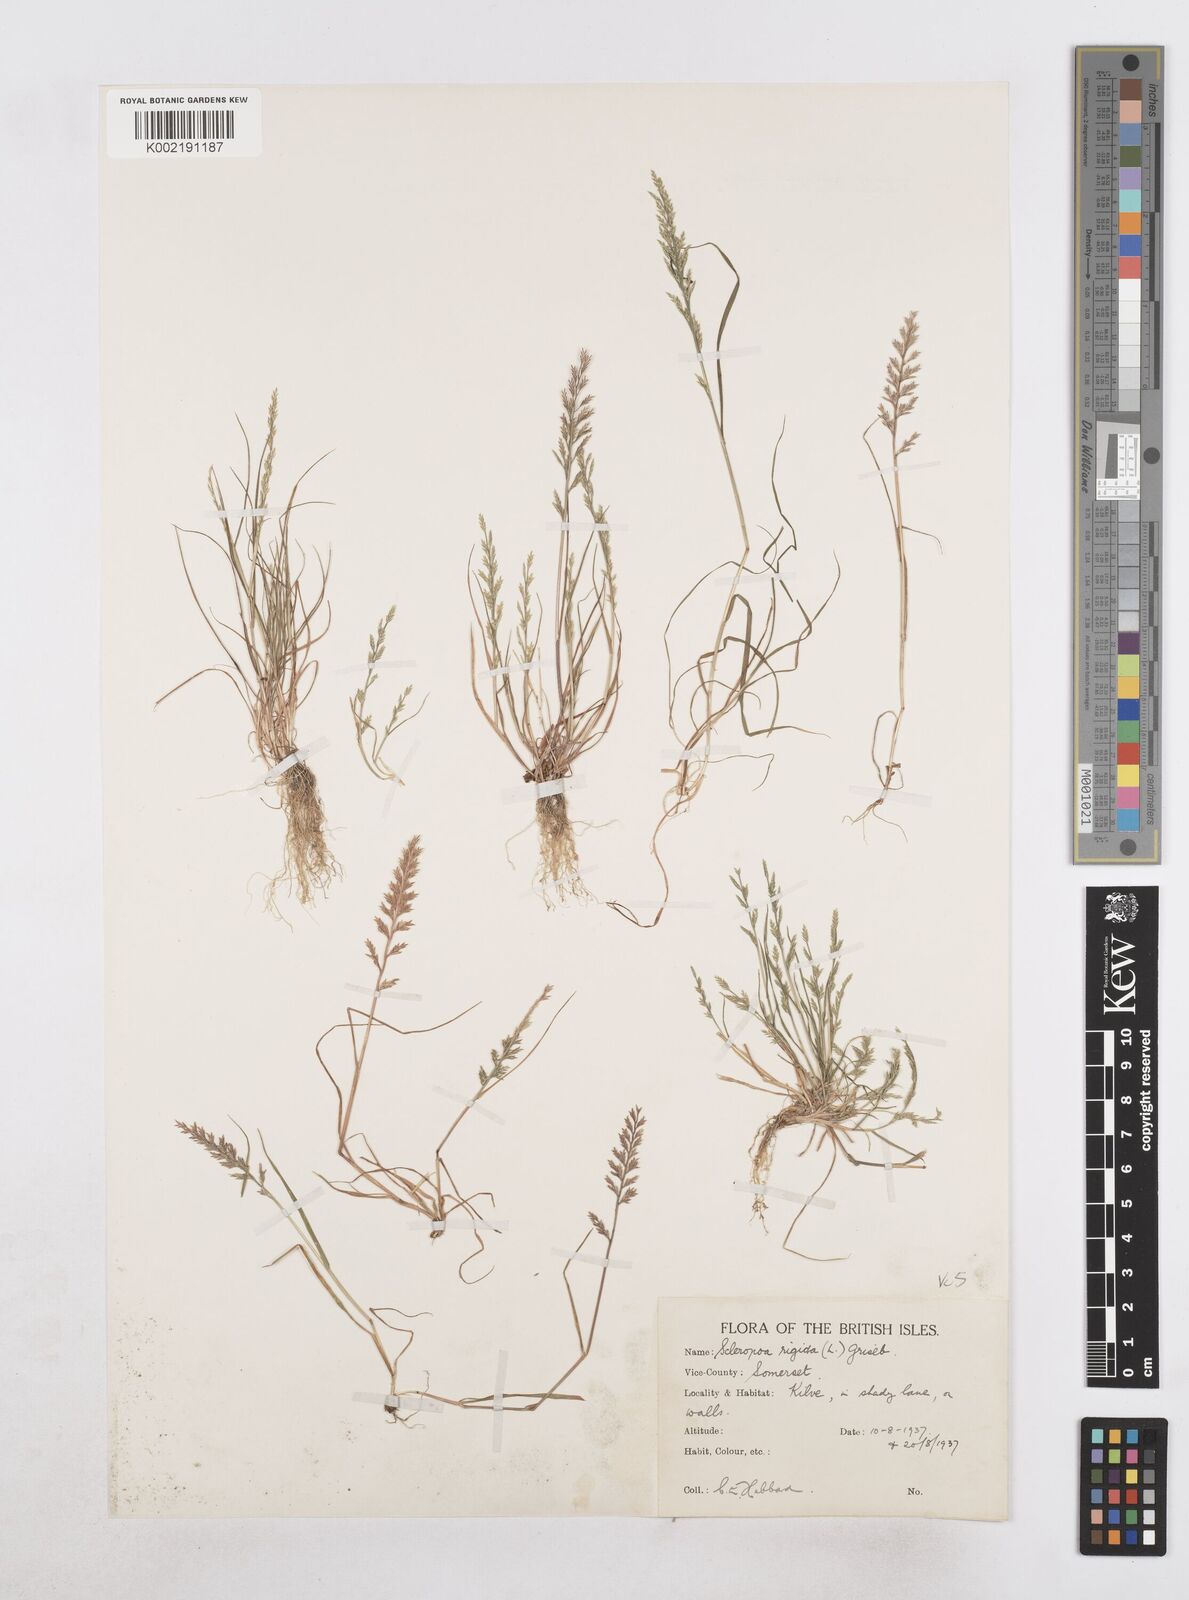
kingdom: Plantae
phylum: Tracheophyta
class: Liliopsida
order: Poales
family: Poaceae
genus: Catapodium
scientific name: Catapodium rigidum
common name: Fern-grass
